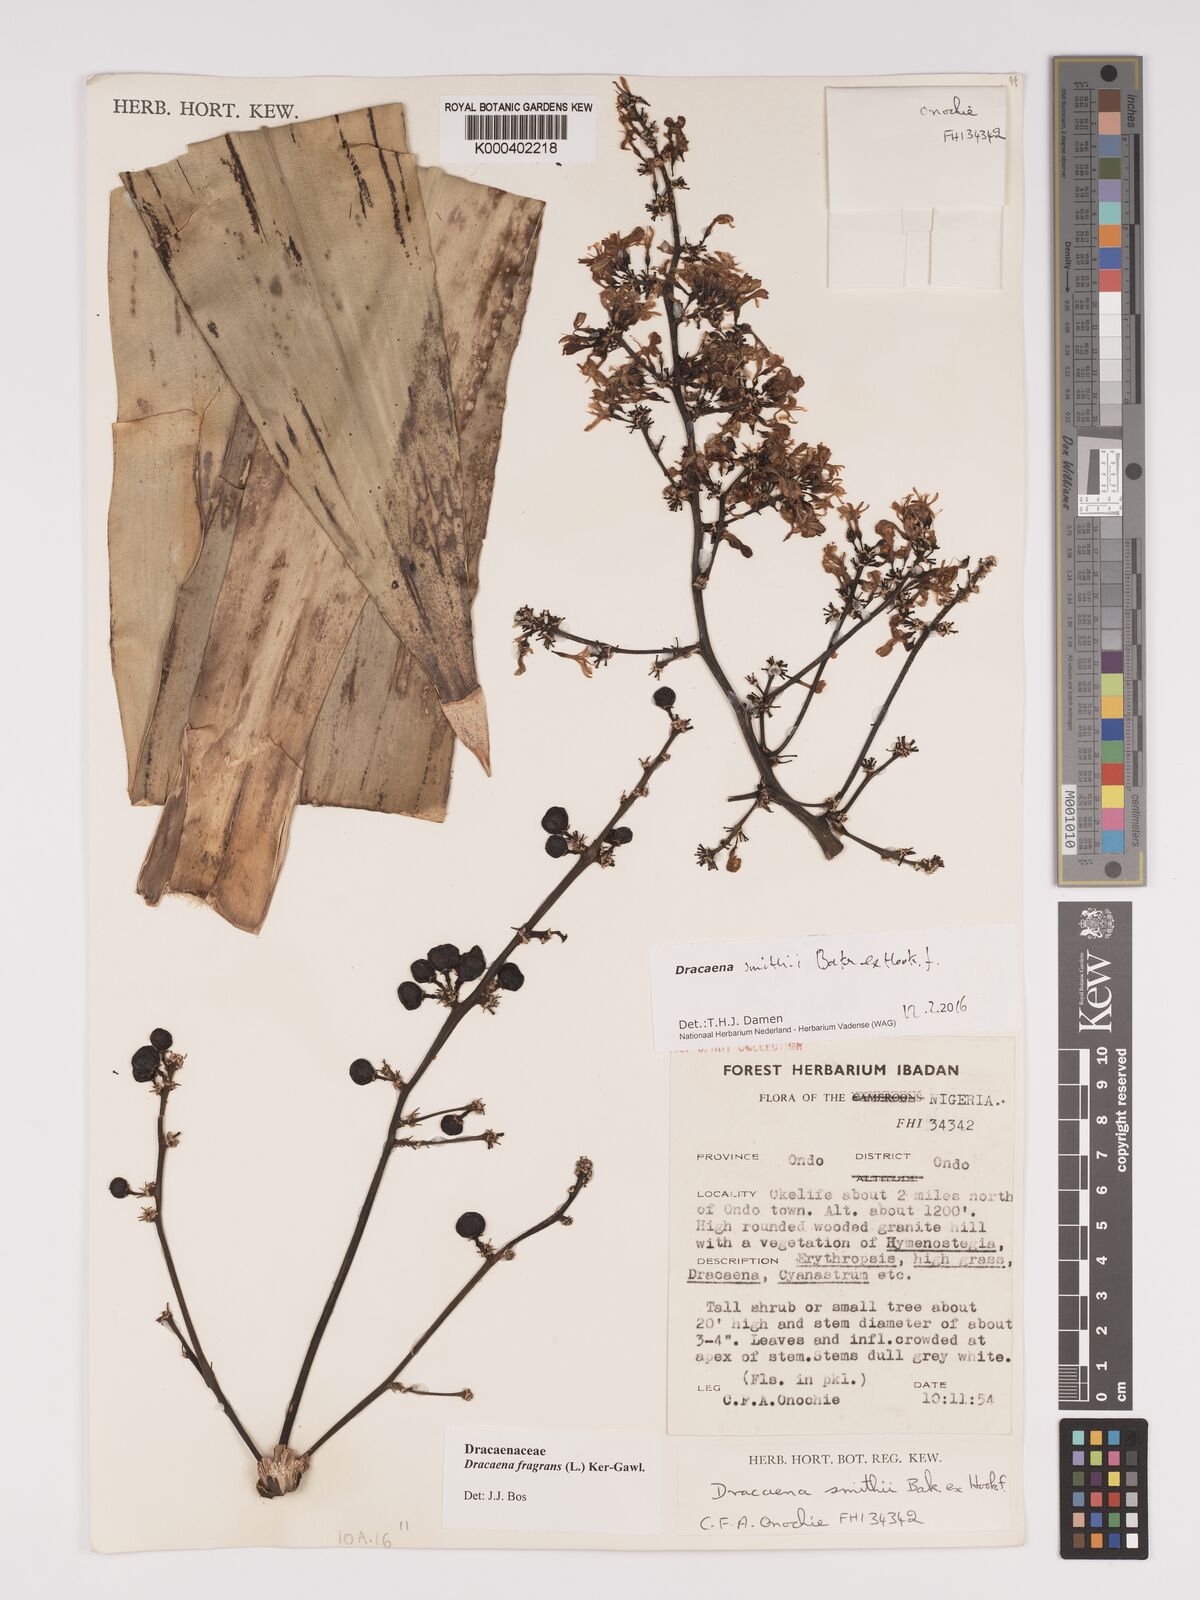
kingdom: Plantae
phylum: Tracheophyta
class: Liliopsida
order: Asparagales
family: Asparagaceae
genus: Dracaena
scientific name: Dracaena fragrans
